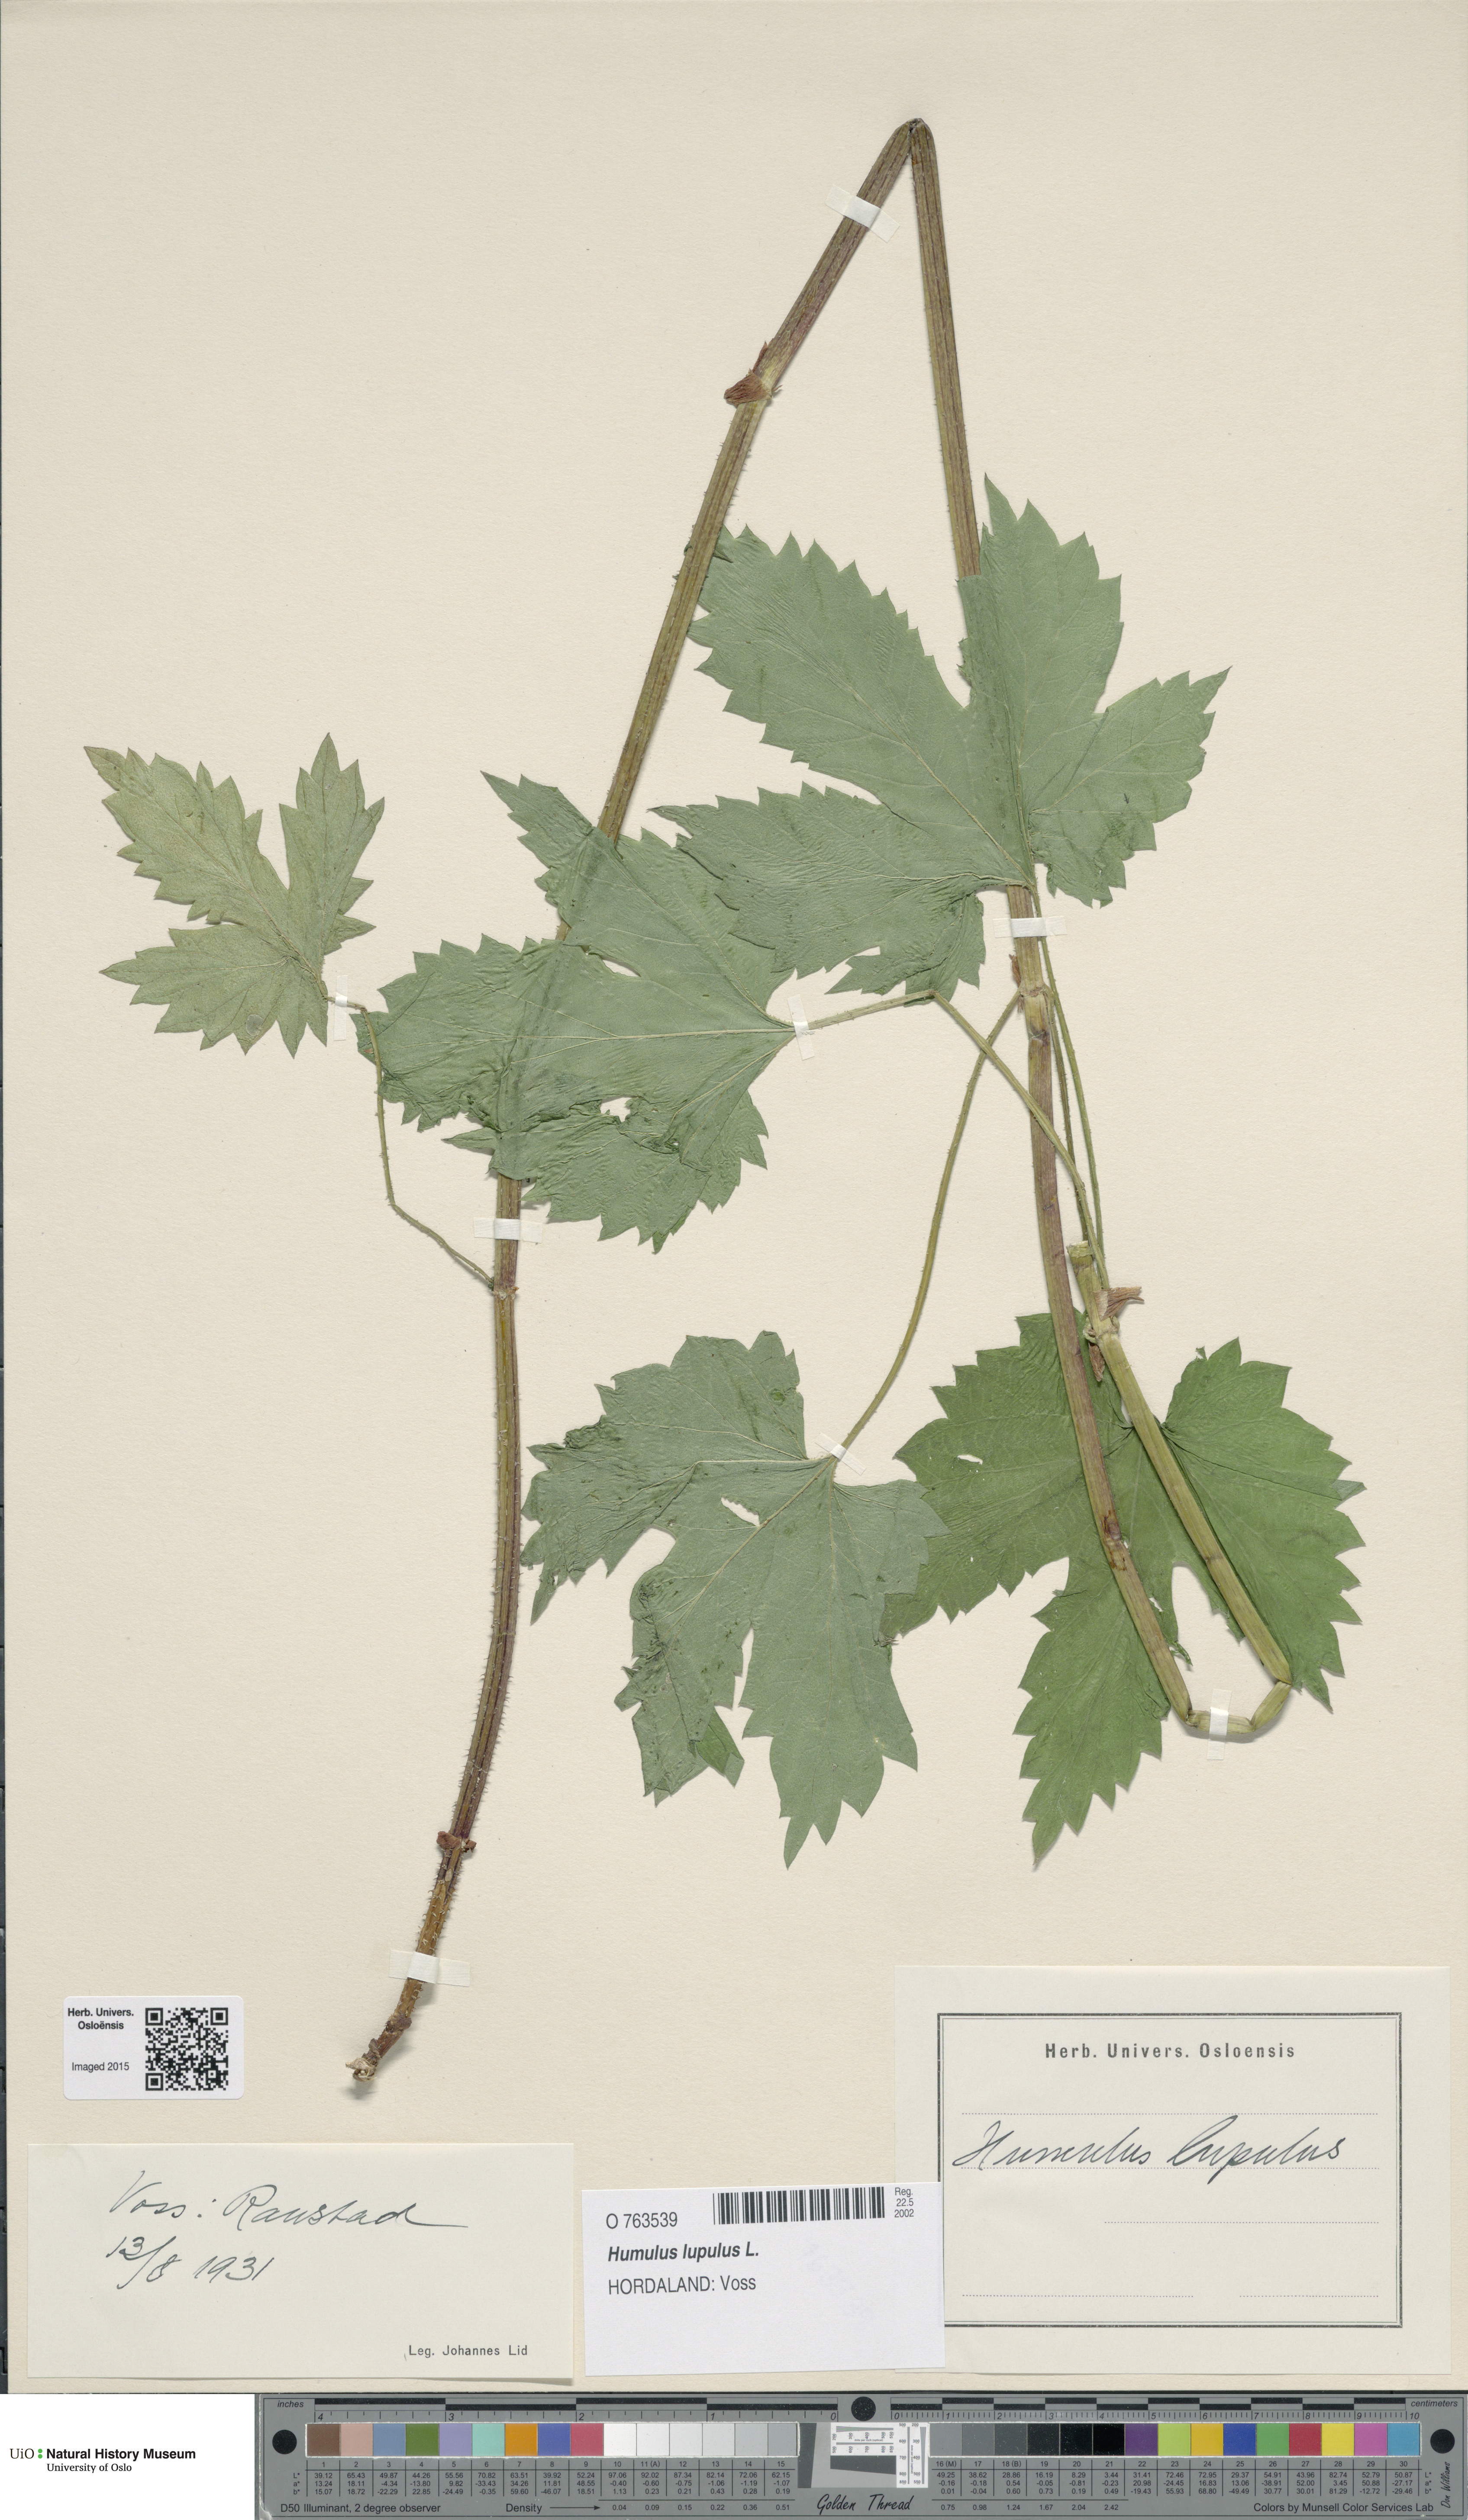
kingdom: Plantae
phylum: Tracheophyta
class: Magnoliopsida
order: Rosales
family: Cannabaceae
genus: Humulus
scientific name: Humulus lupulus
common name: Hop
